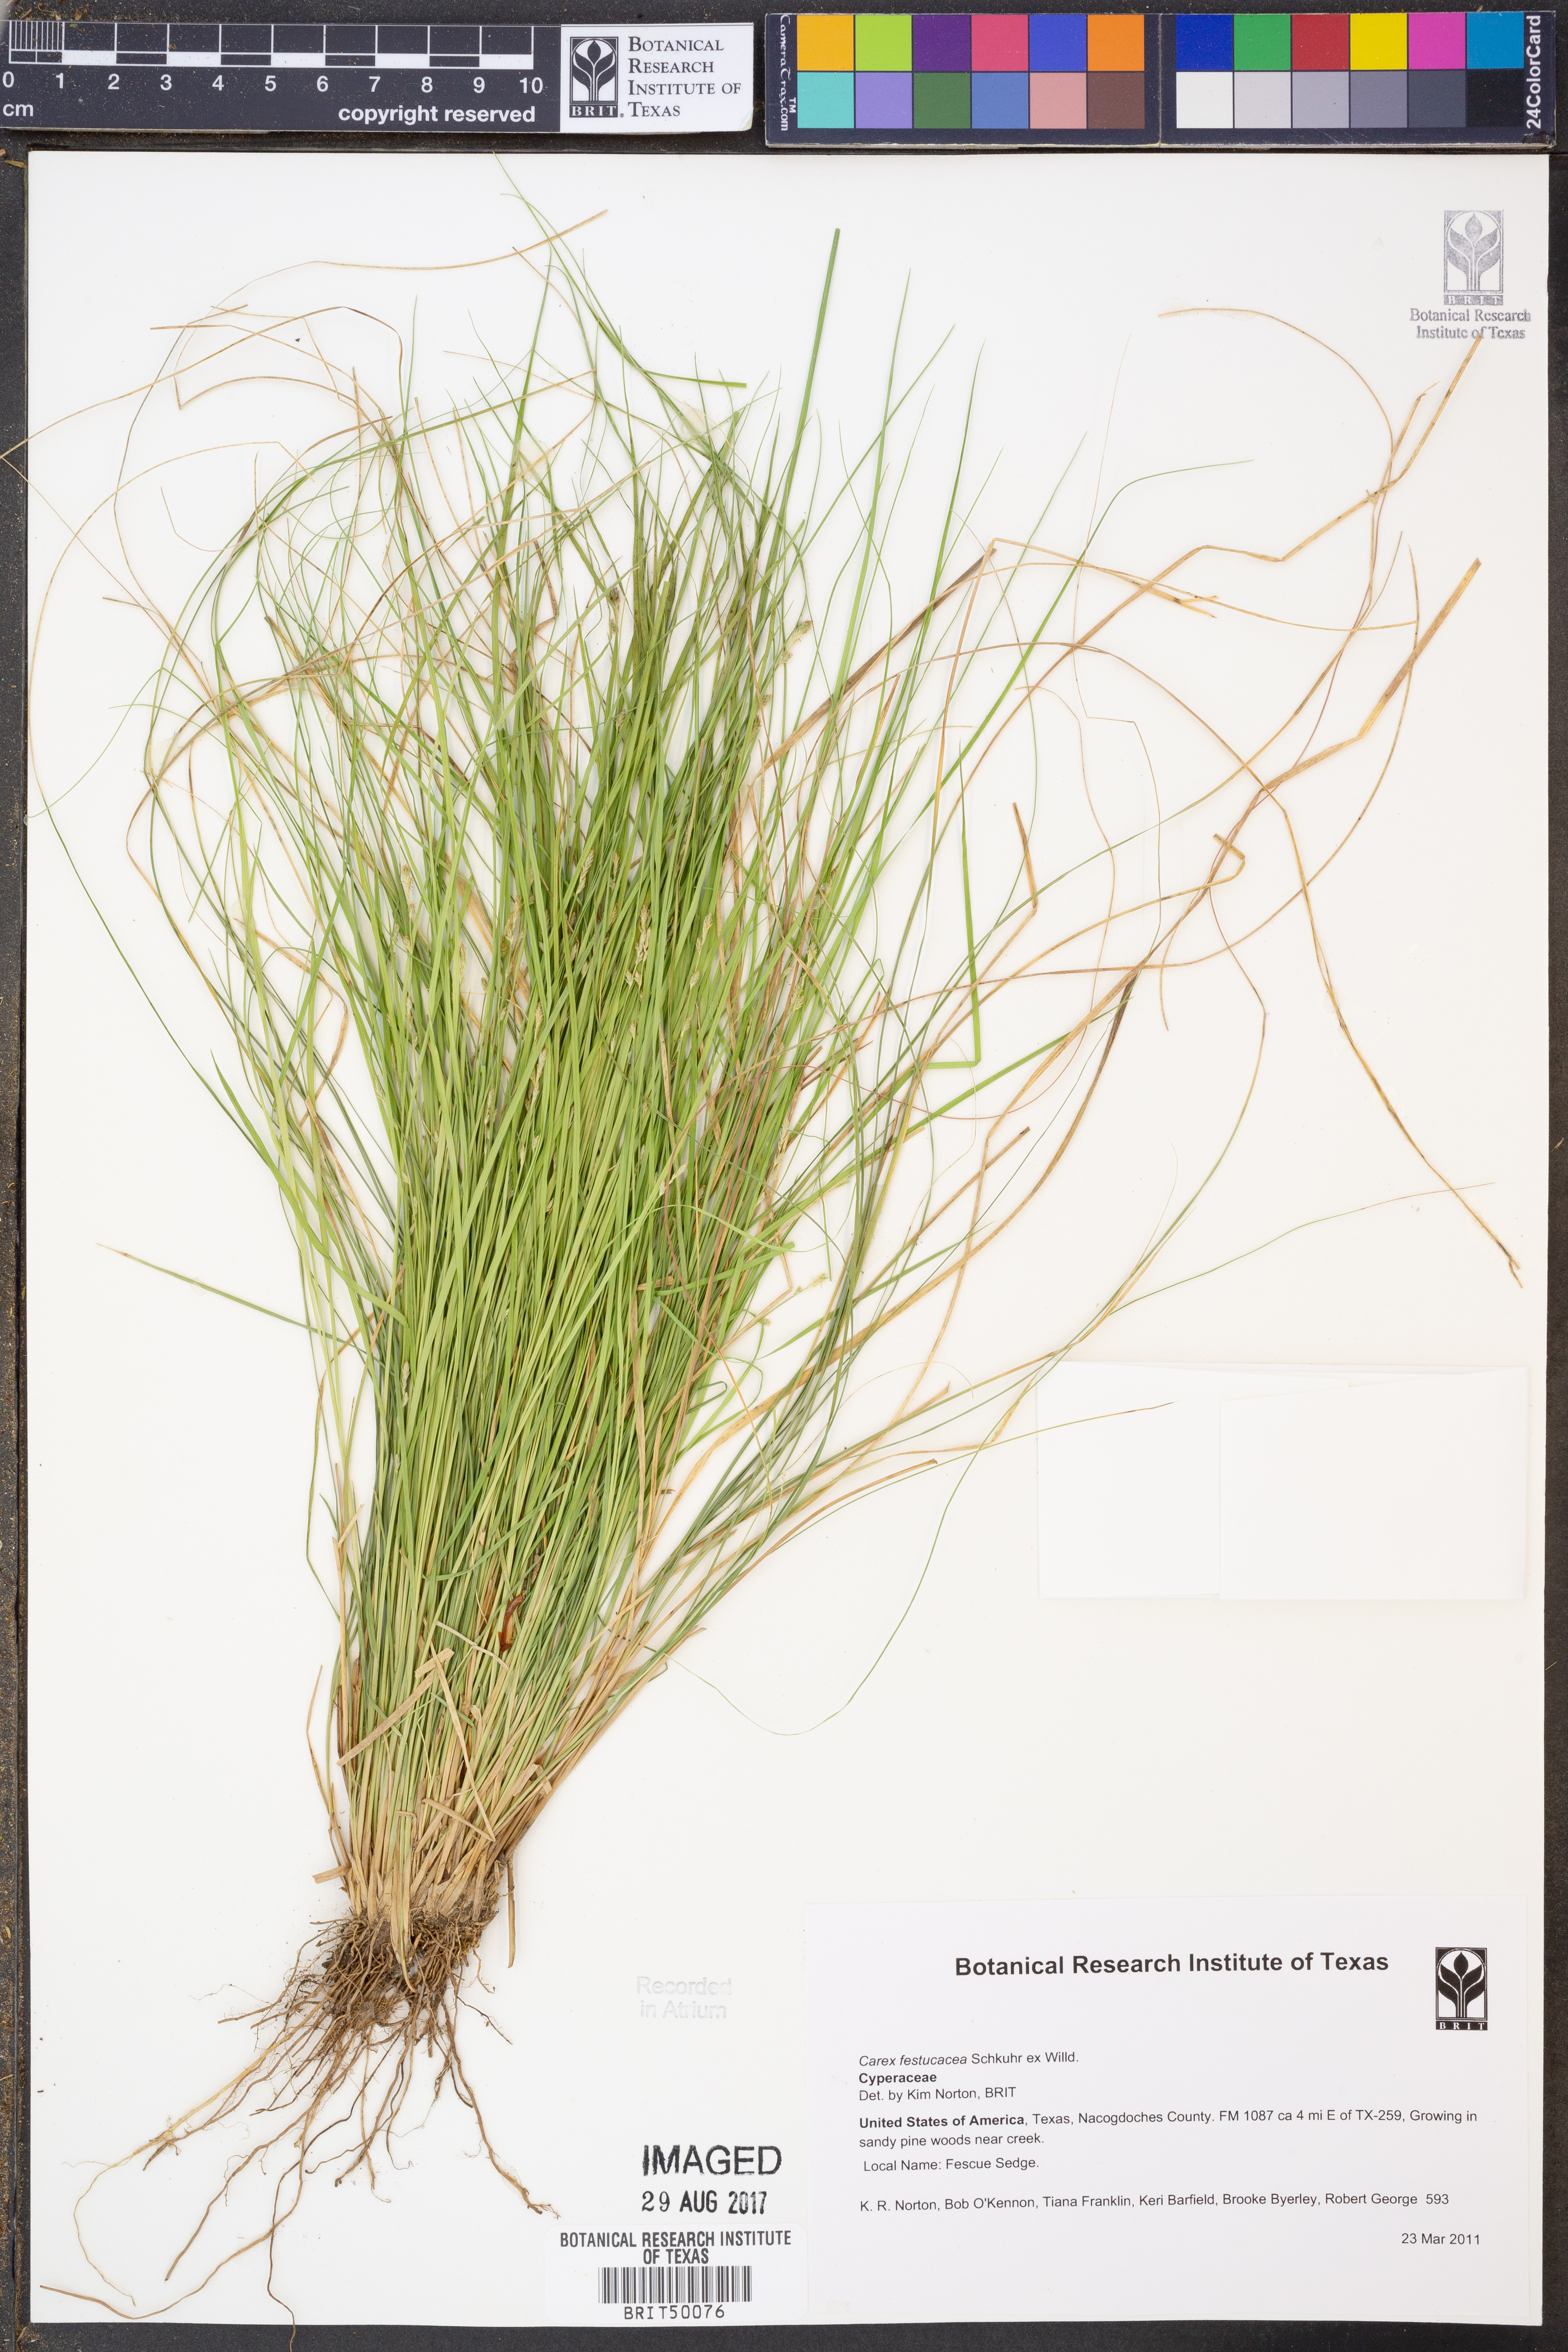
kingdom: Plantae
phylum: Tracheophyta
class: Liliopsida
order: Poales
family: Cyperaceae
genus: Carex
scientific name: Carex festucacea
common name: Fescue oval sedge
